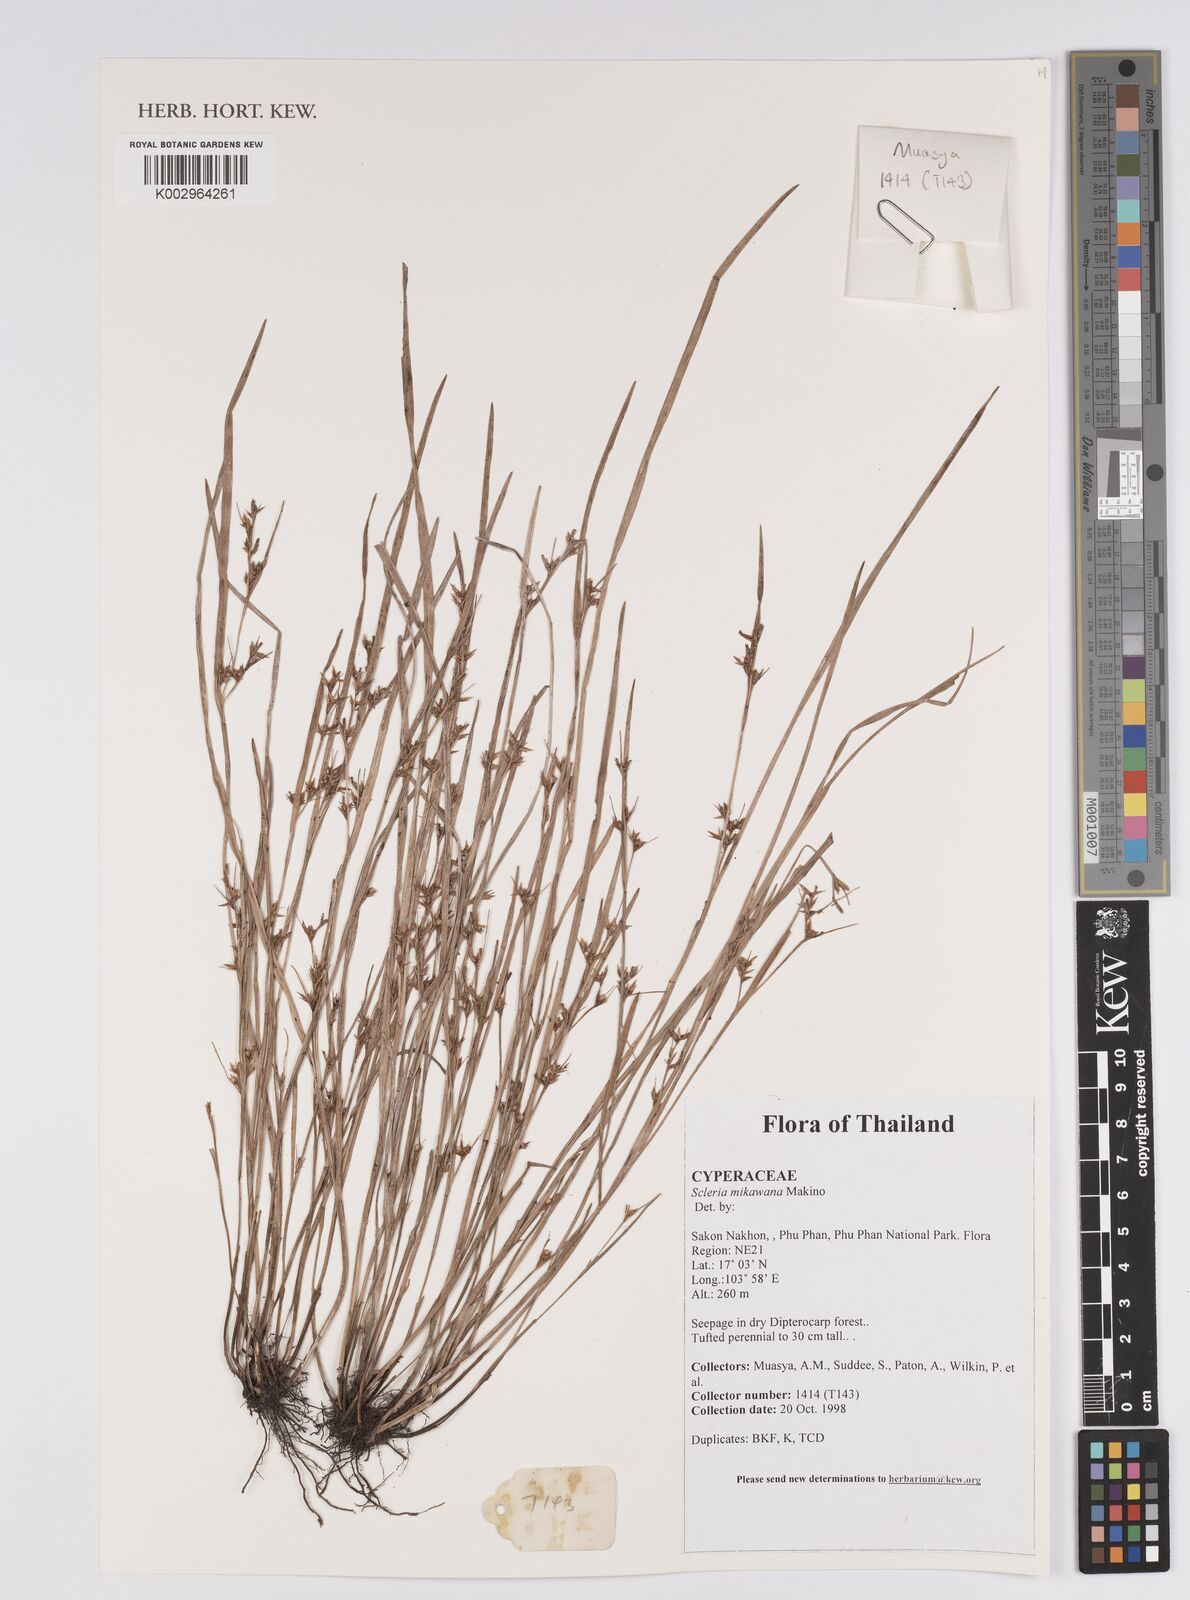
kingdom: Plantae
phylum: Tracheophyta
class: Liliopsida
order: Poales
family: Cyperaceae
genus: Scleria
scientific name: Scleria mikawana
